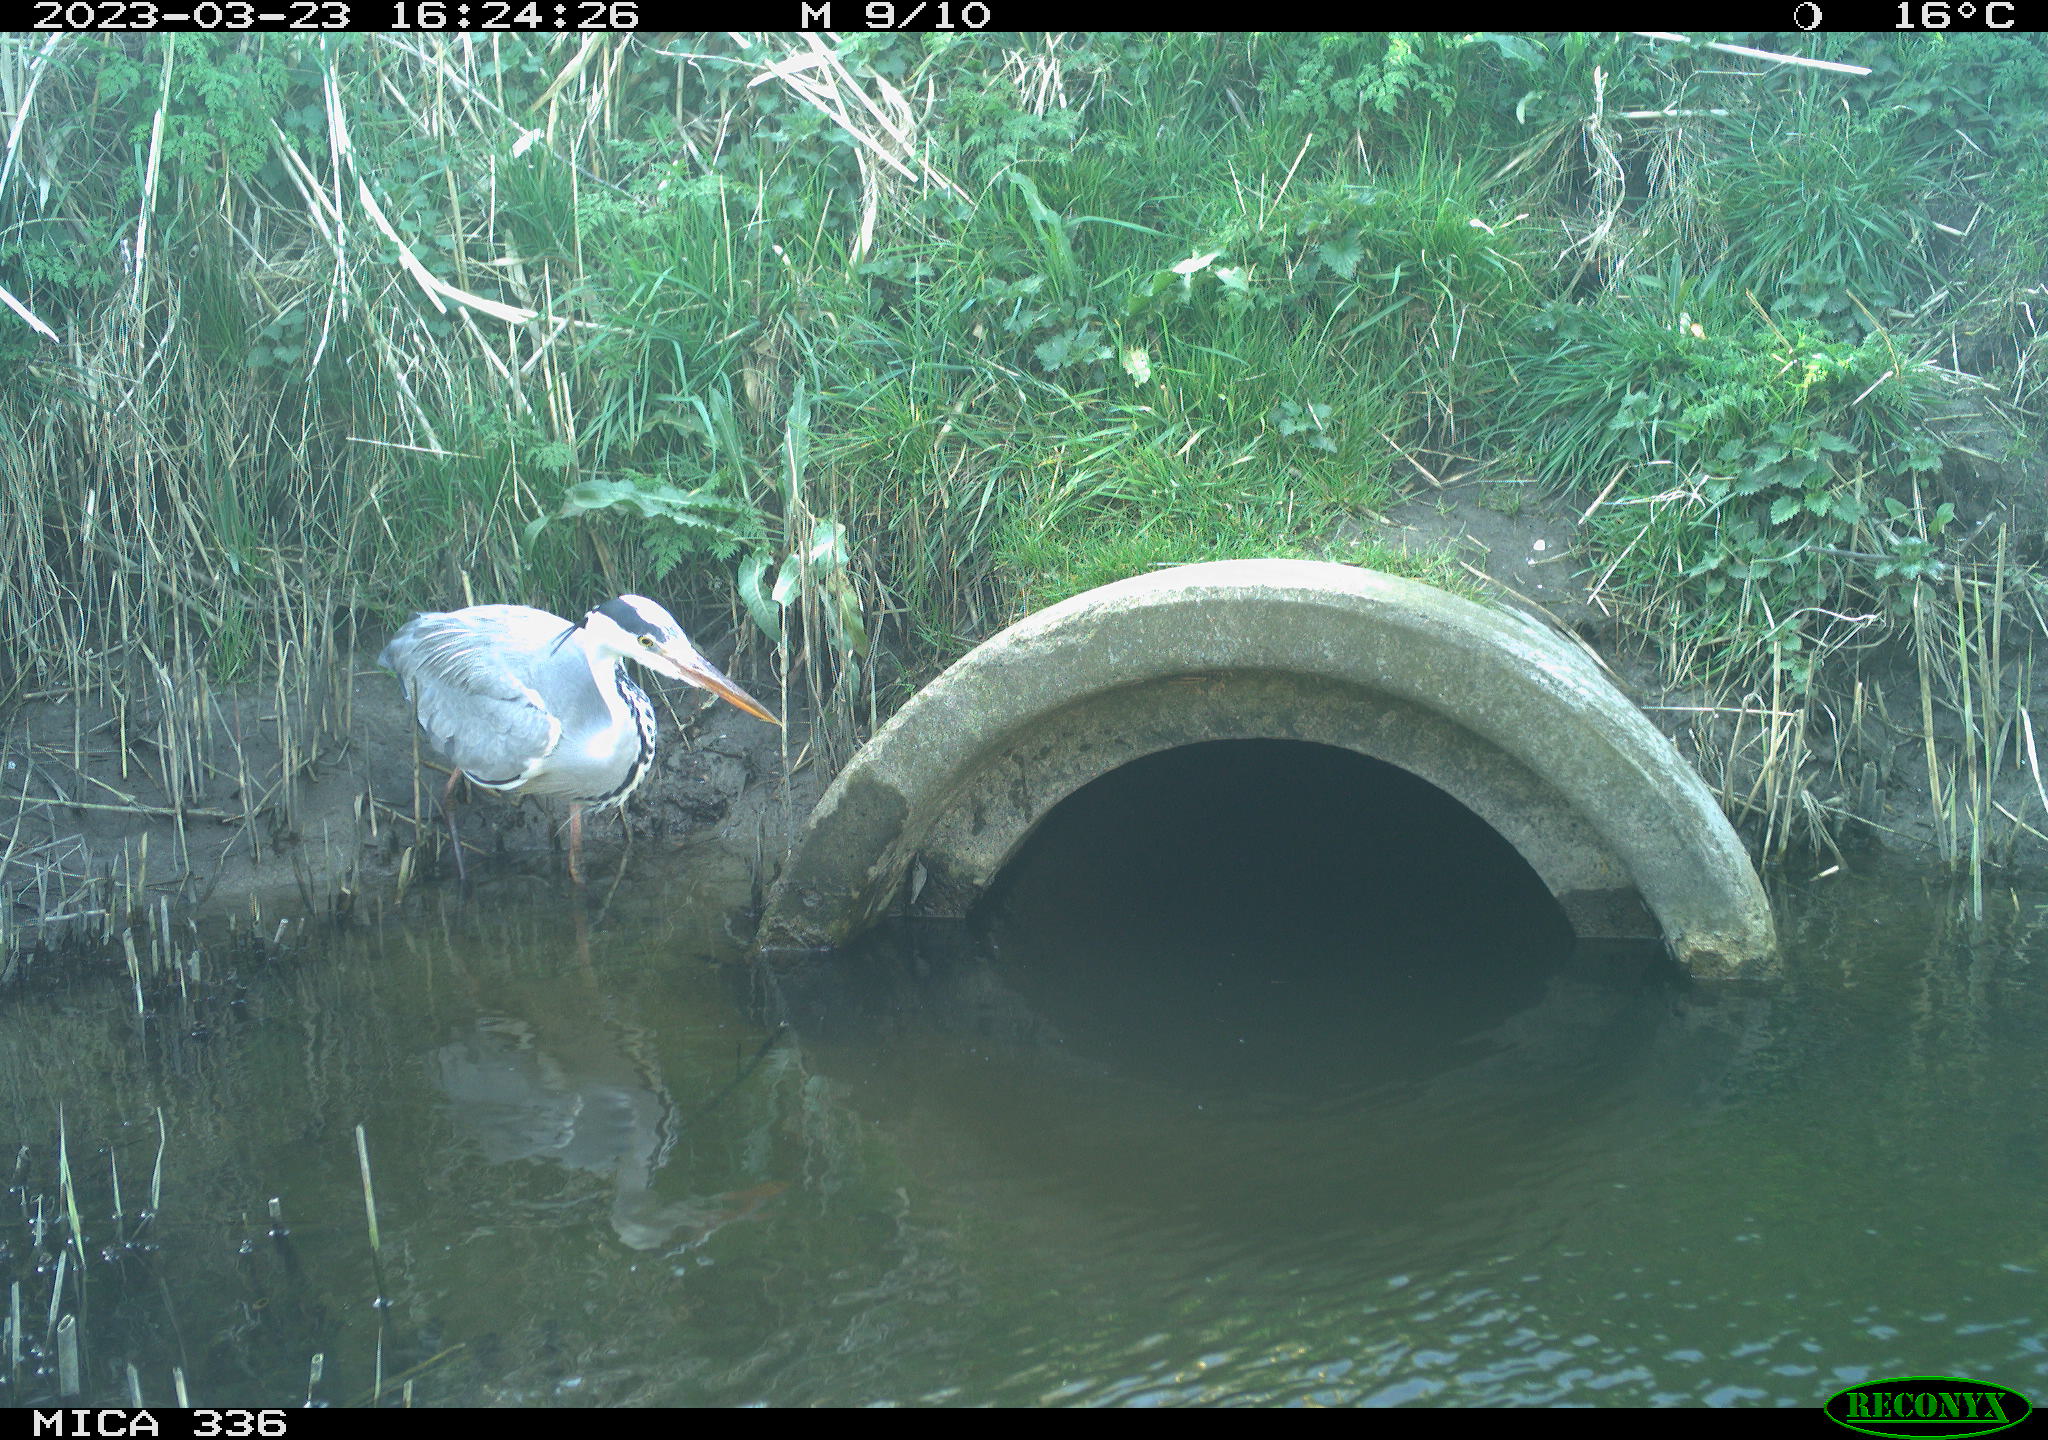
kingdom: Animalia
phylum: Chordata
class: Aves
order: Pelecaniformes
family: Ardeidae
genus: Ardea
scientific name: Ardea
